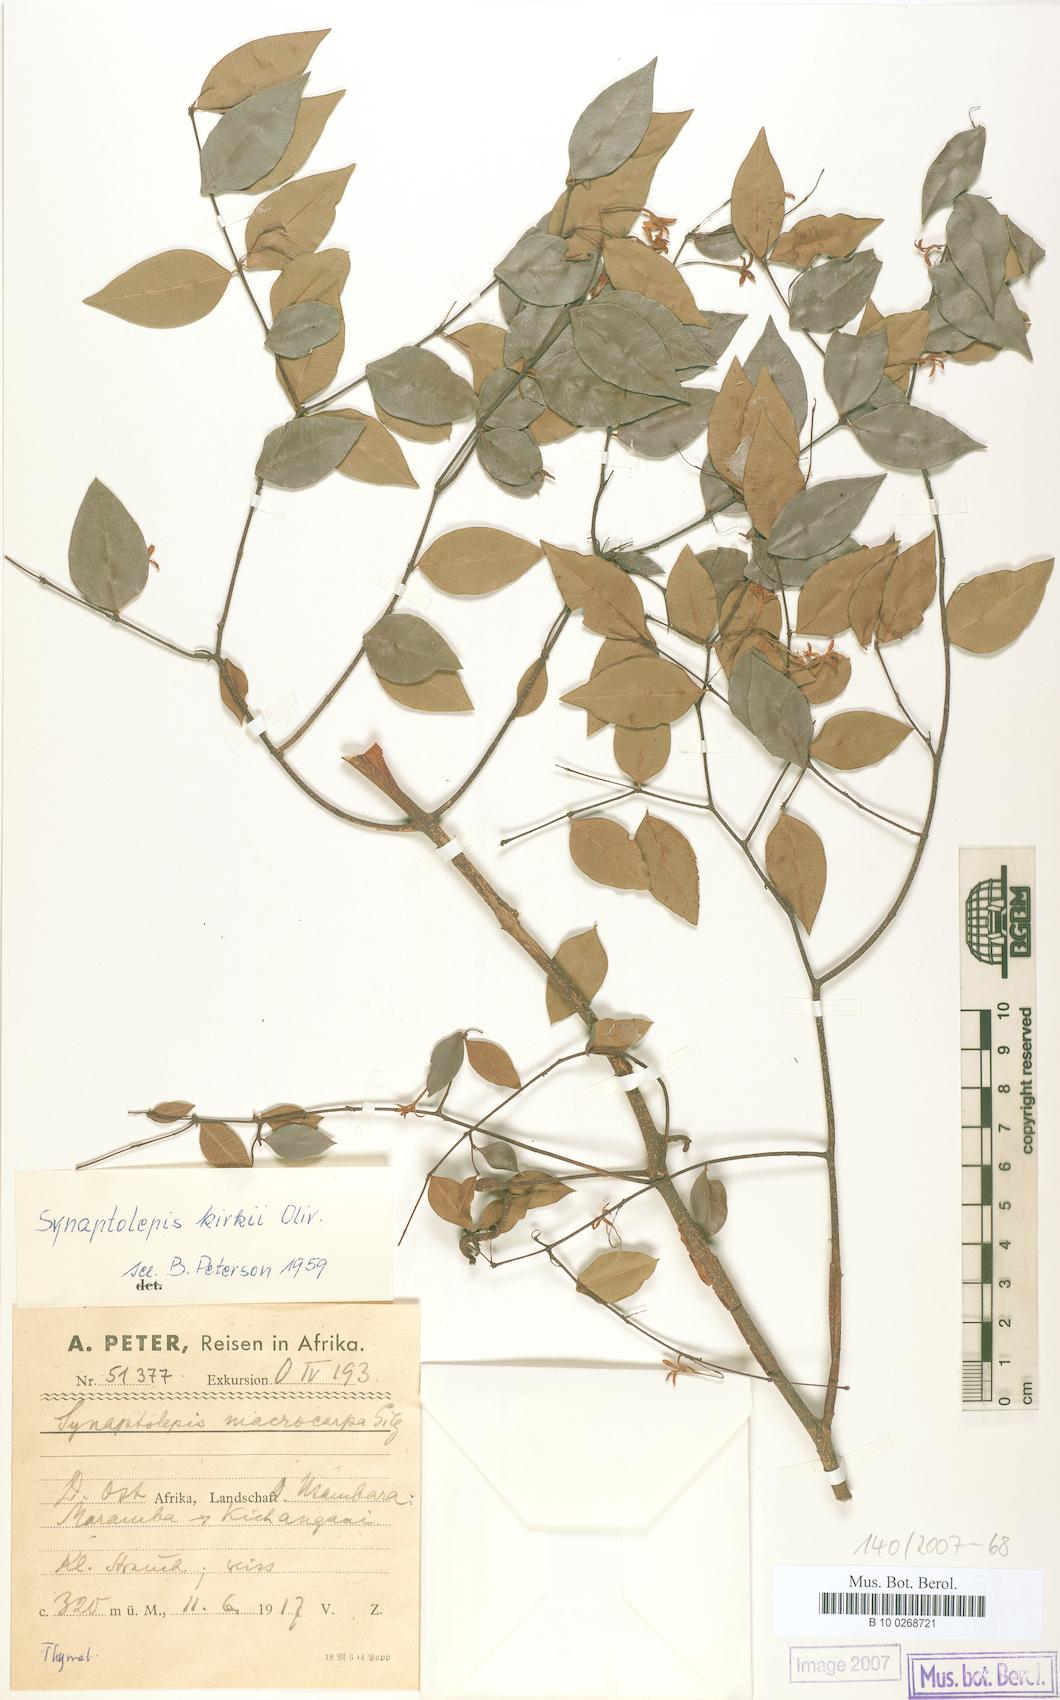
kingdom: Plantae
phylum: Tracheophyta
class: Magnoliopsida
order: Malvales
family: Thymelaeaceae
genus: Synaptolepis
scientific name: Synaptolepis kirkii
